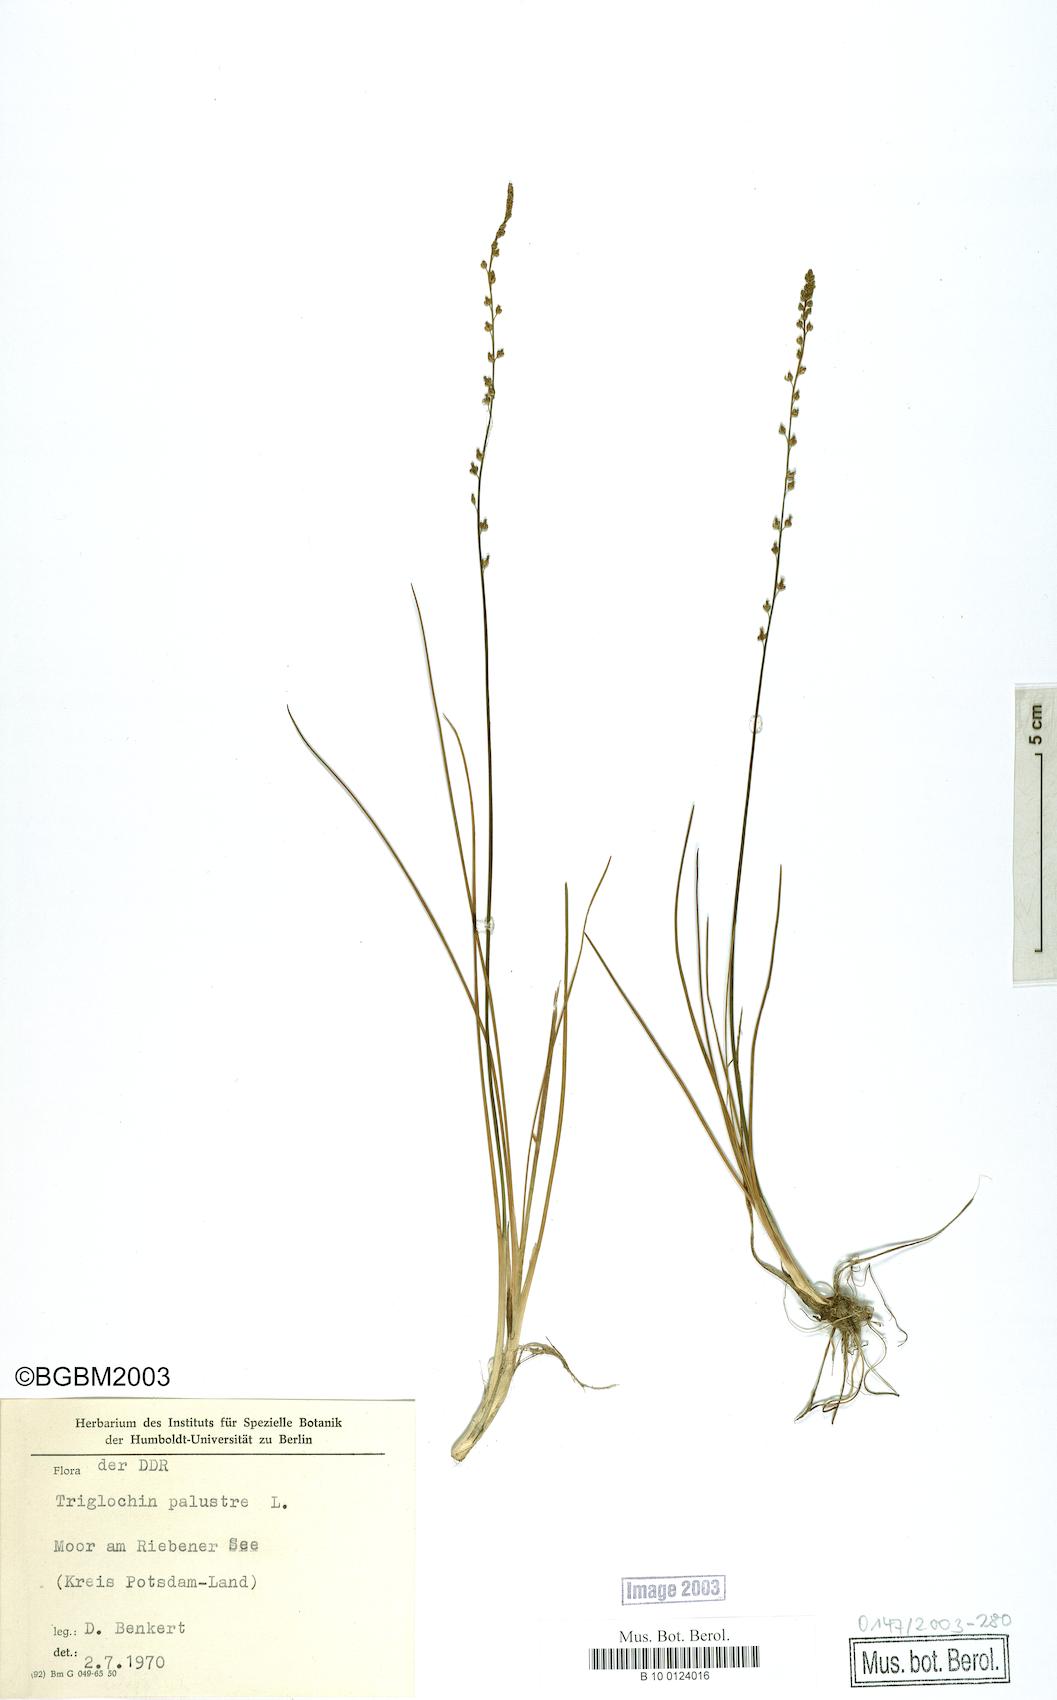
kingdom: Plantae
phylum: Tracheophyta
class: Liliopsida
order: Alismatales
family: Juncaginaceae
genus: Triglochin
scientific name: Triglochin palustris
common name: Marsh arrowgrass
